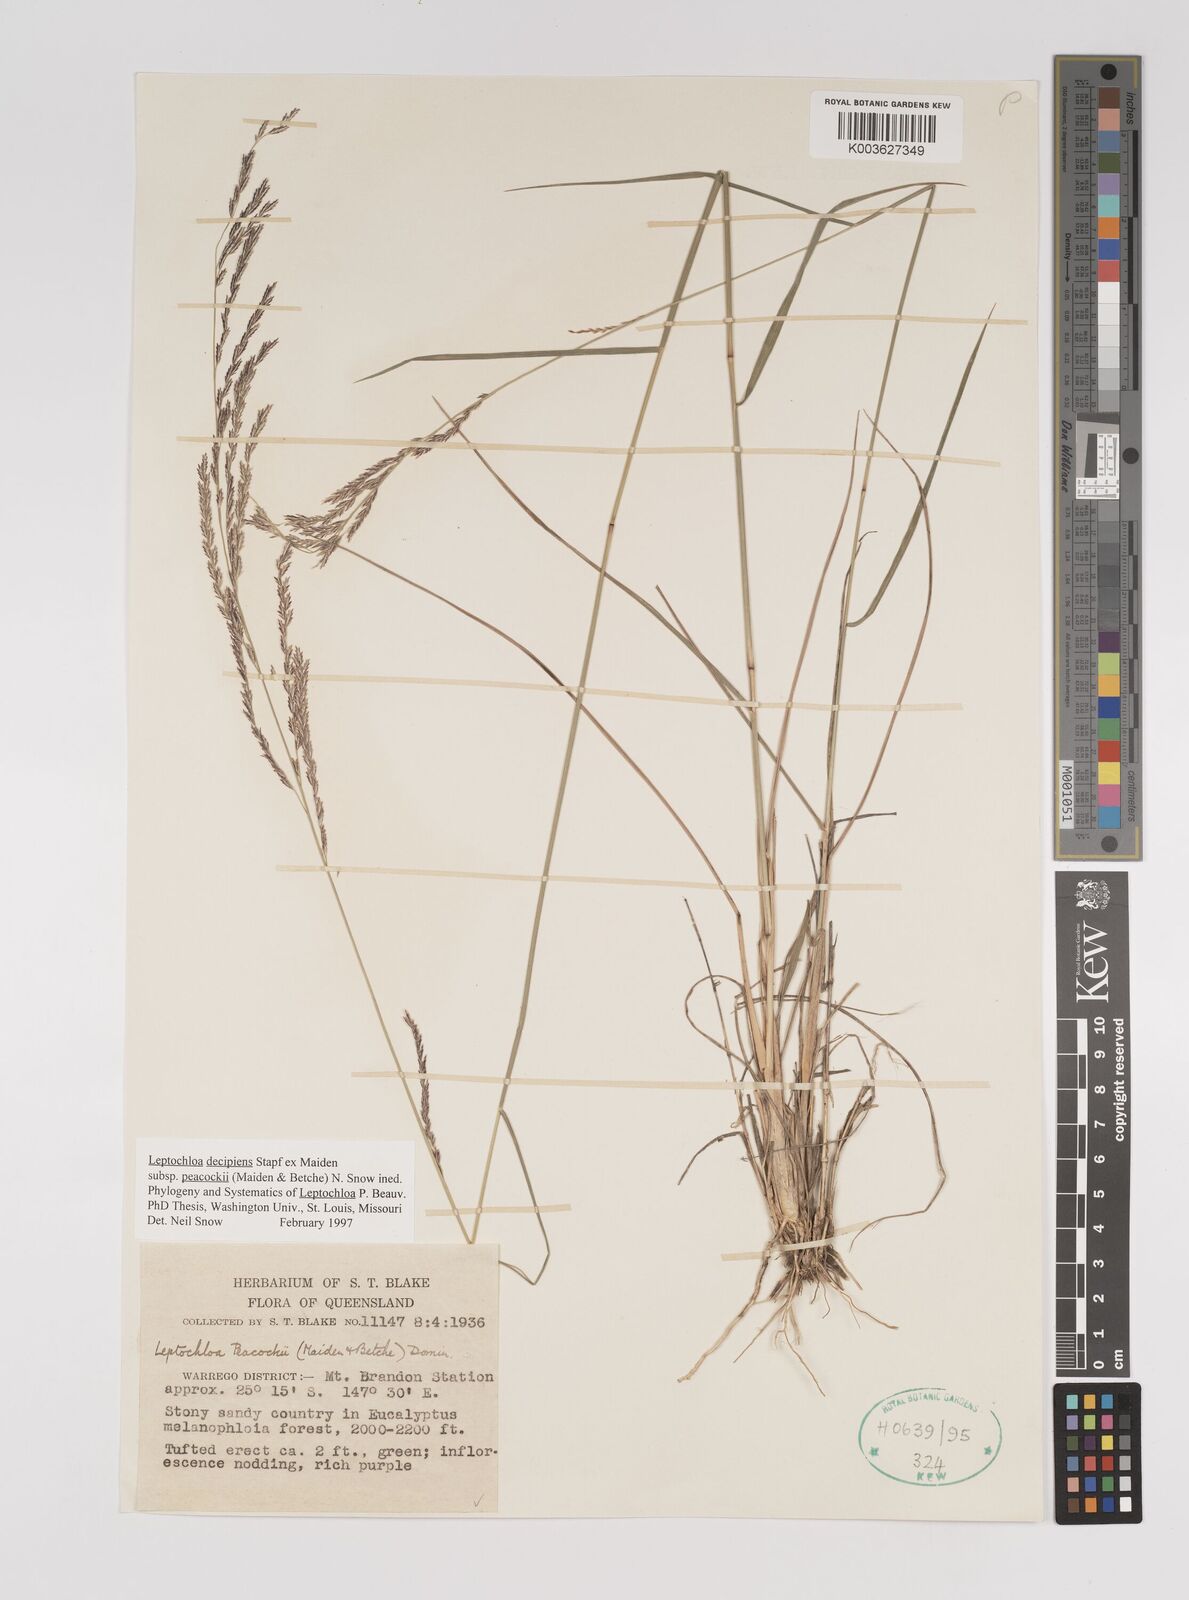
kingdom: Plantae
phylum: Tracheophyta
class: Liliopsida
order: Poales
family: Poaceae
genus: Leptochloa
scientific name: Leptochloa decipiens
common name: Australian sprangletop
